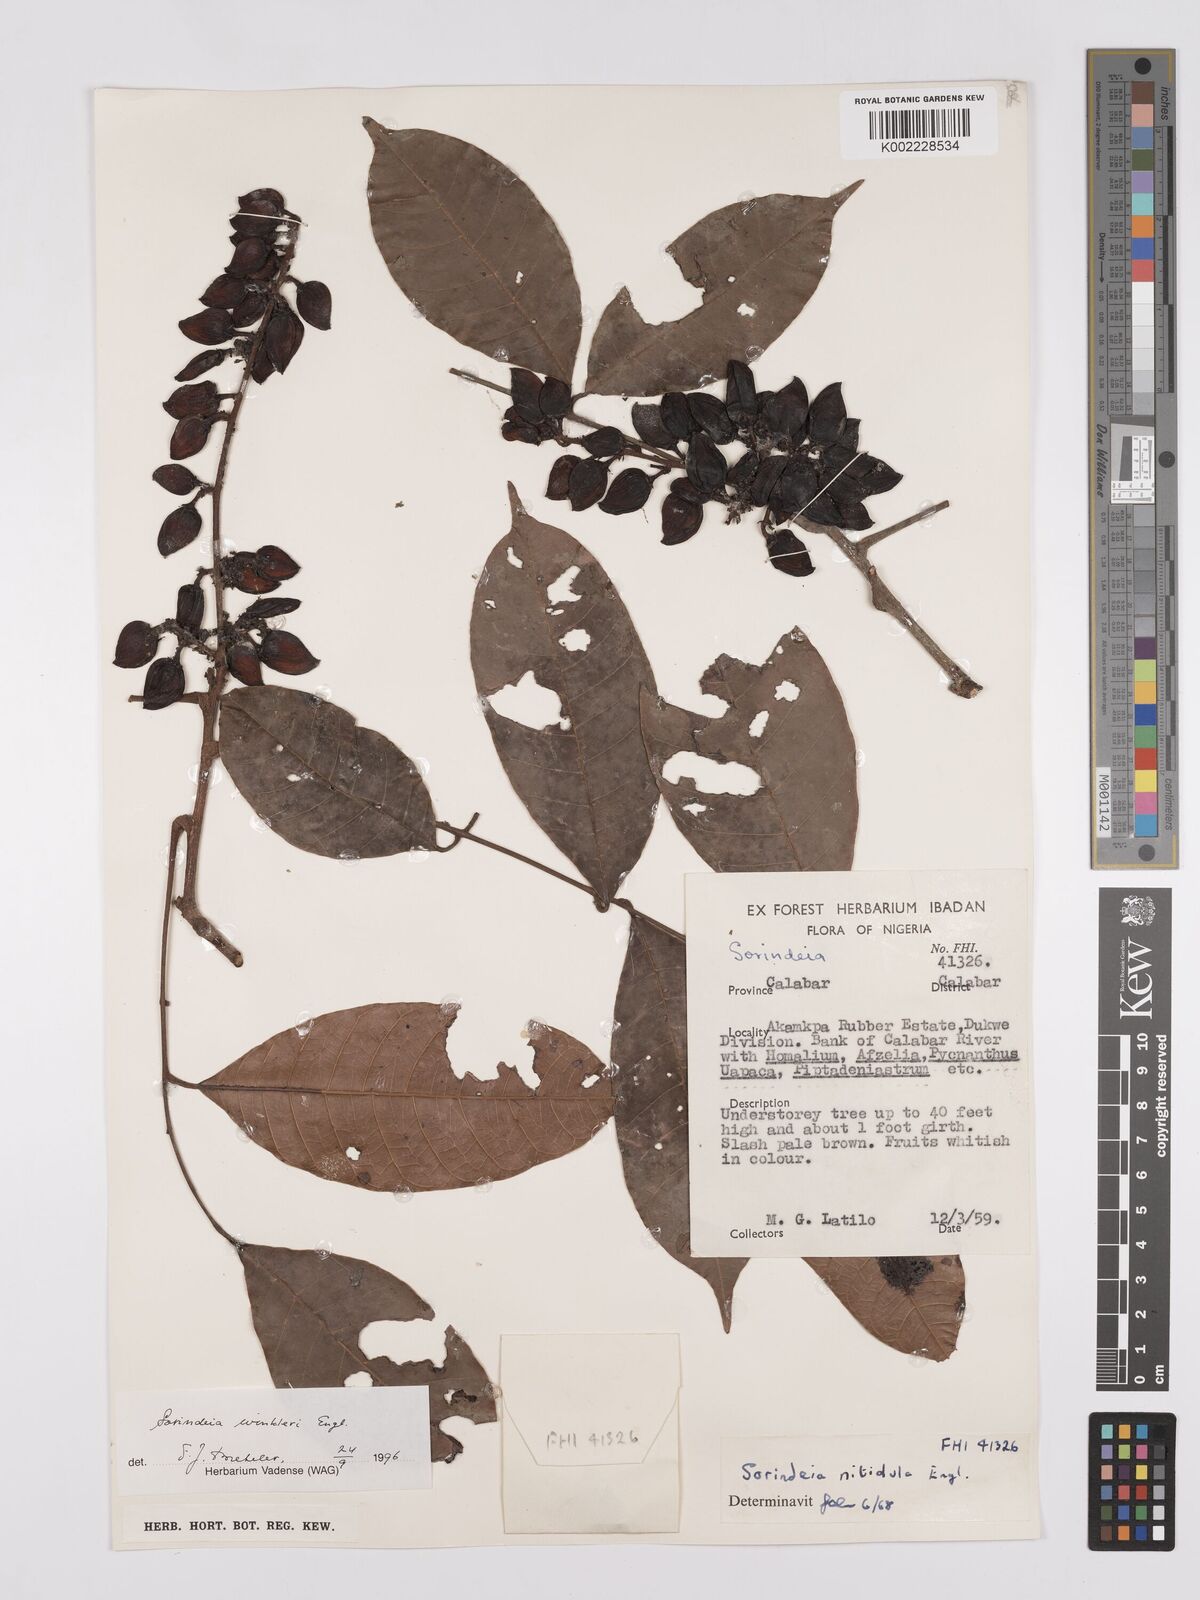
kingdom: Plantae
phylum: Tracheophyta
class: Magnoliopsida
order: Sapindales
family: Anacardiaceae
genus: Sorindeia
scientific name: Sorindeia winkleri
